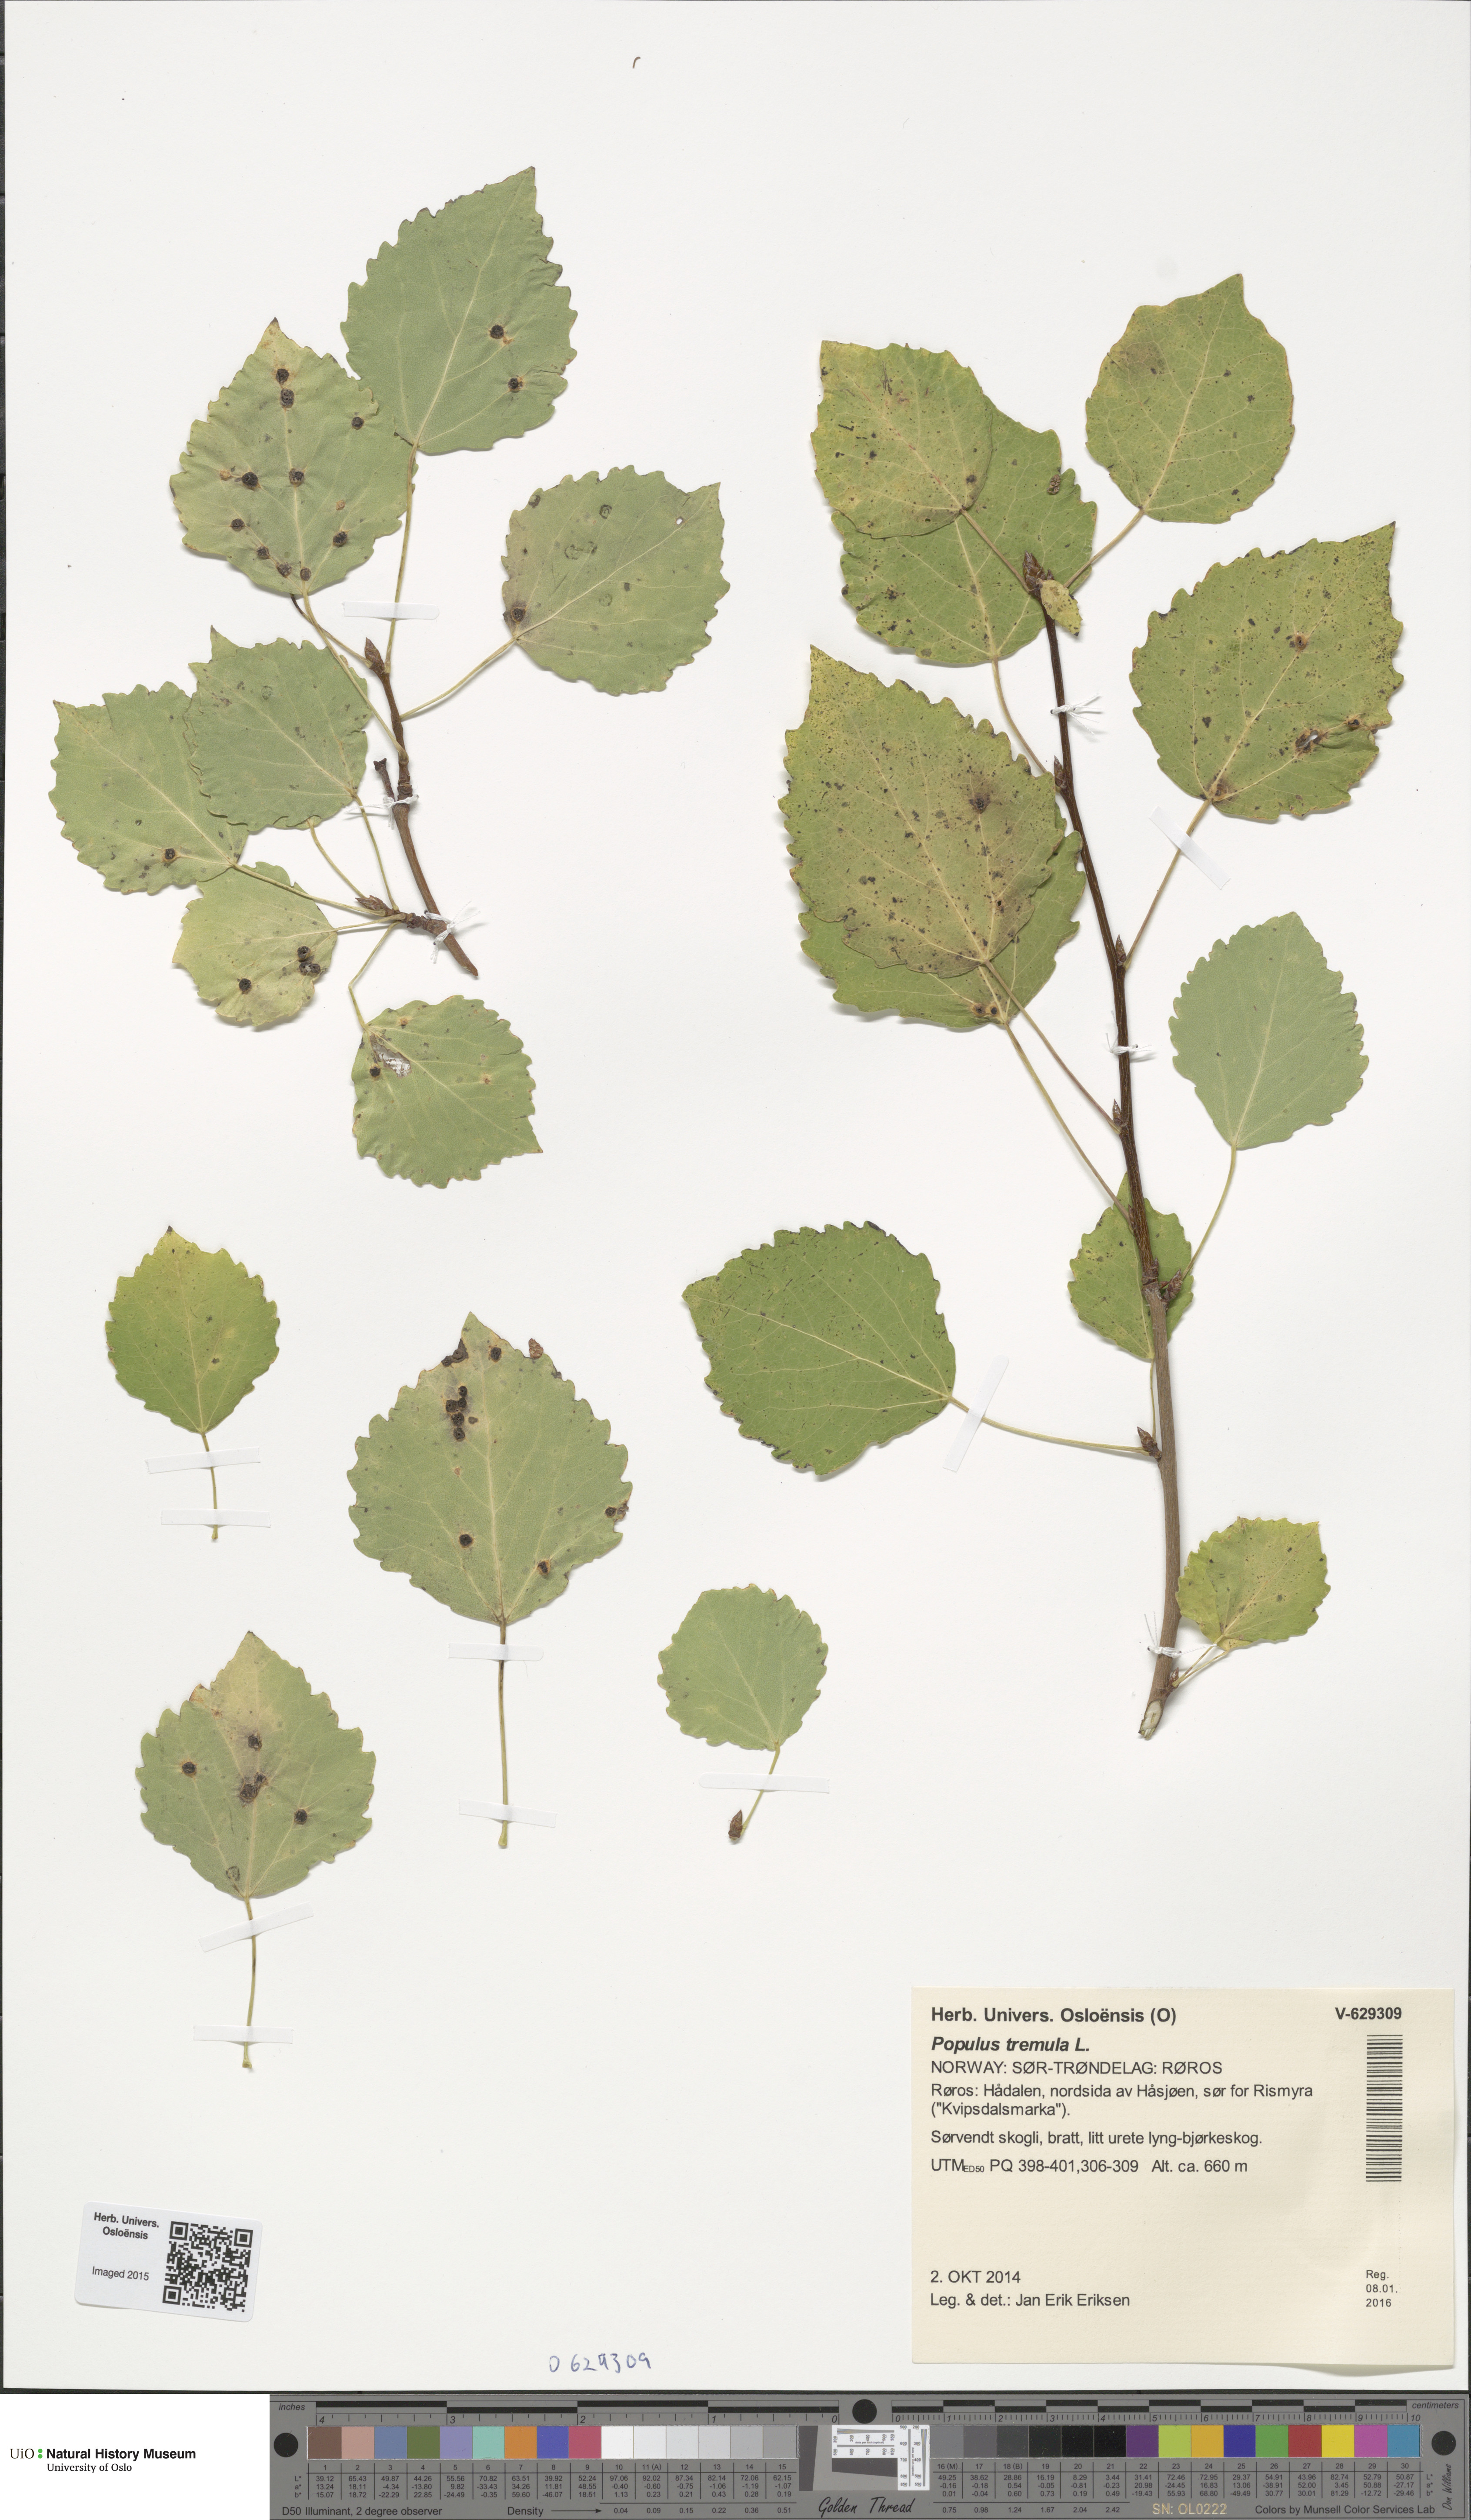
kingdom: Plantae
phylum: Tracheophyta
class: Magnoliopsida
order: Malpighiales
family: Salicaceae
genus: Populus
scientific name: Populus tremula
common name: European aspen
